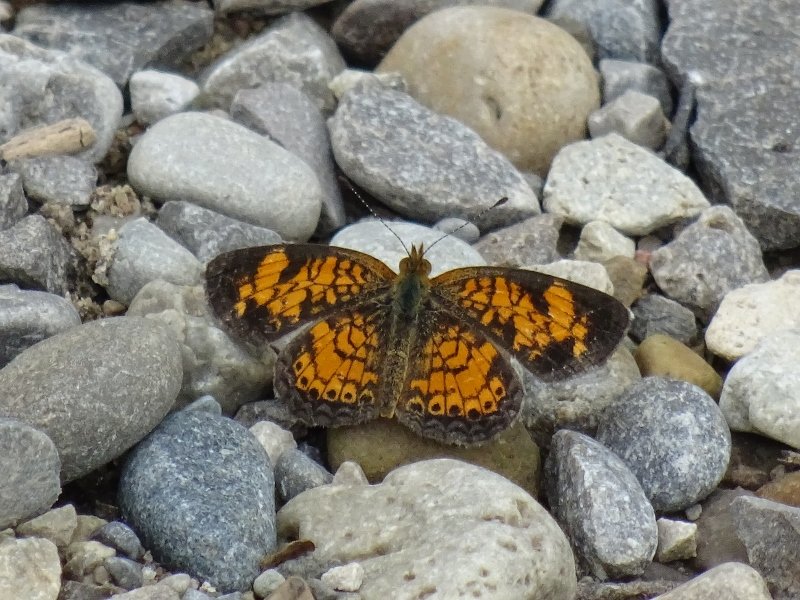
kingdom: Animalia
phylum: Arthropoda
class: Insecta
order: Lepidoptera
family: Nymphalidae
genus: Phyciodes
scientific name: Phyciodes tharos
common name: Pearl Crescent
